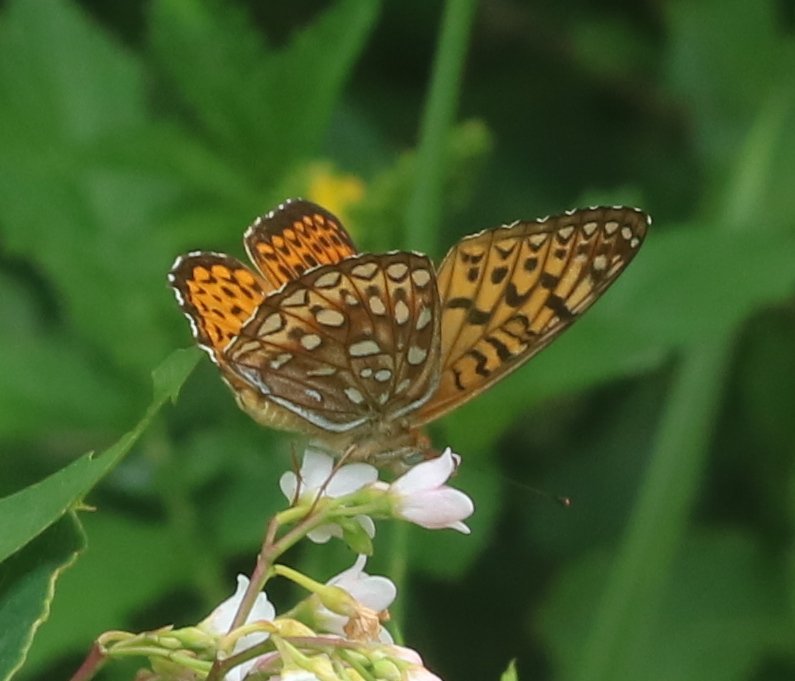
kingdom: Animalia
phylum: Arthropoda
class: Insecta
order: Lepidoptera
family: Nymphalidae
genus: Speyeria
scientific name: Speyeria atlantis
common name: Atlantis Fritillary
